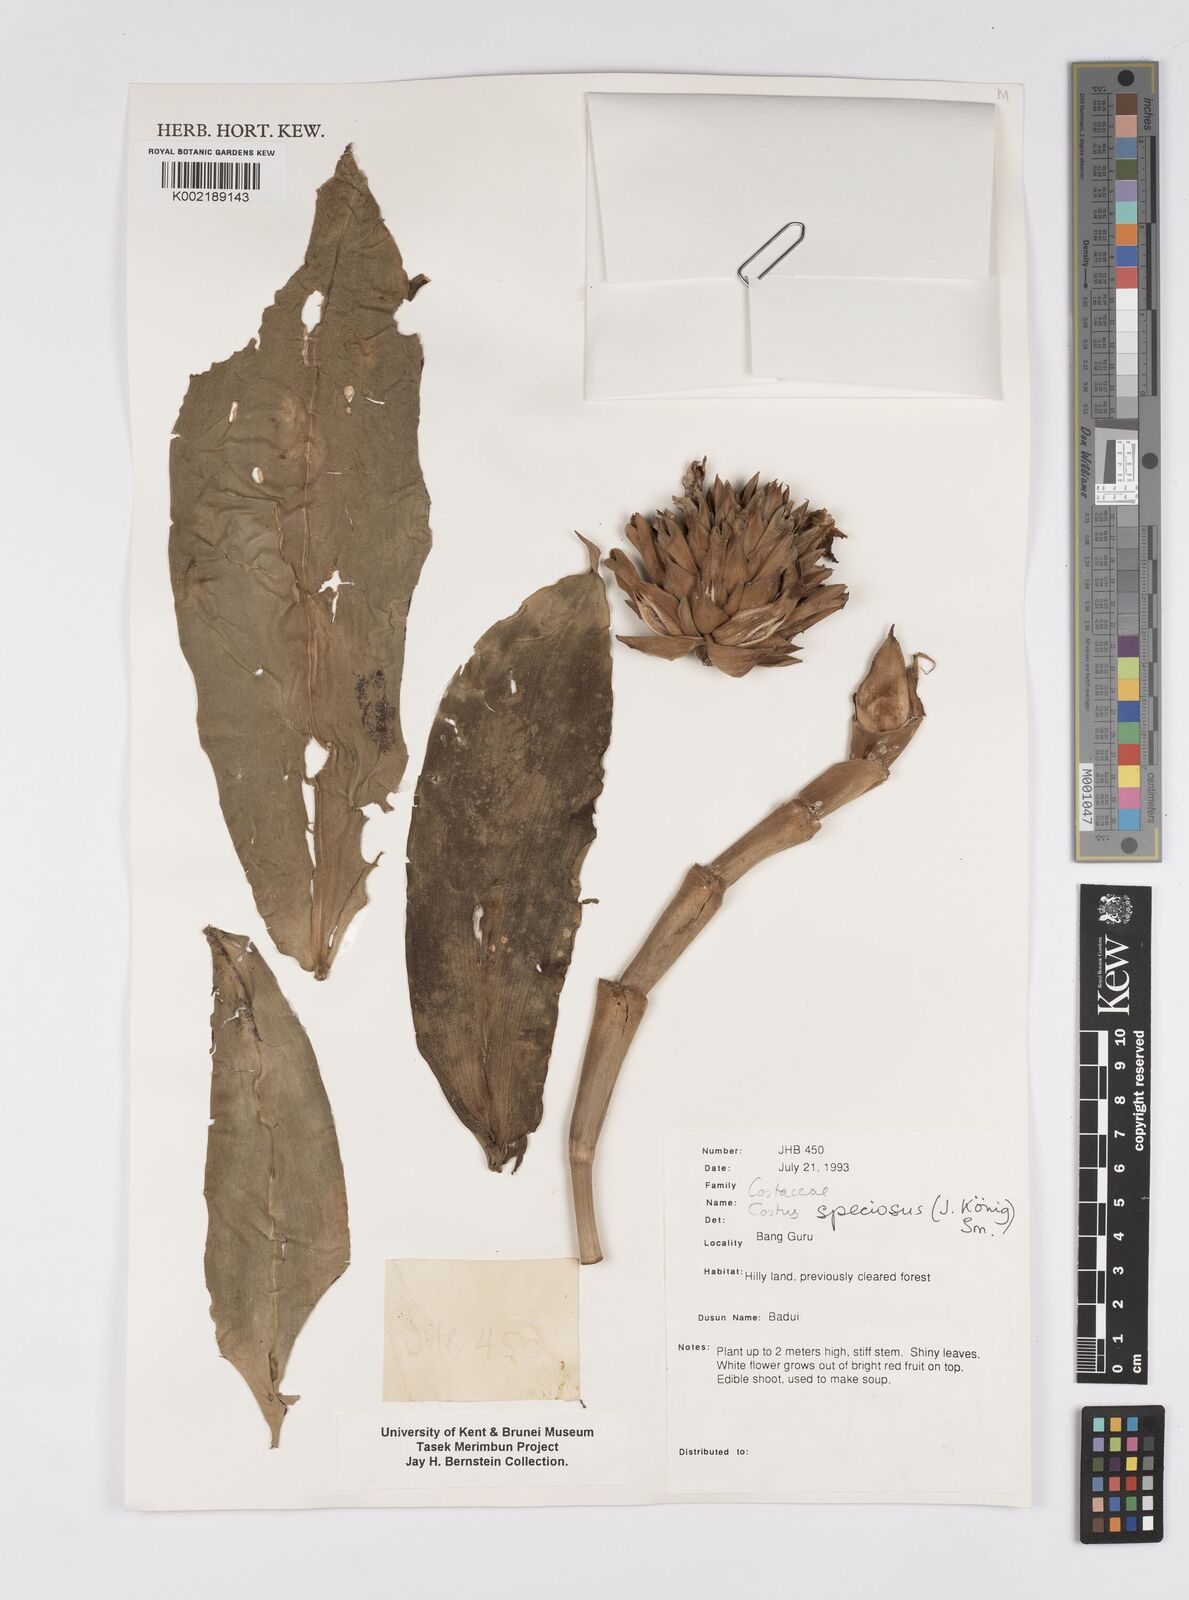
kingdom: Plantae
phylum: Tracheophyta
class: Liliopsida
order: Zingiberales
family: Costaceae
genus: Hellenia
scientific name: Hellenia speciosa
